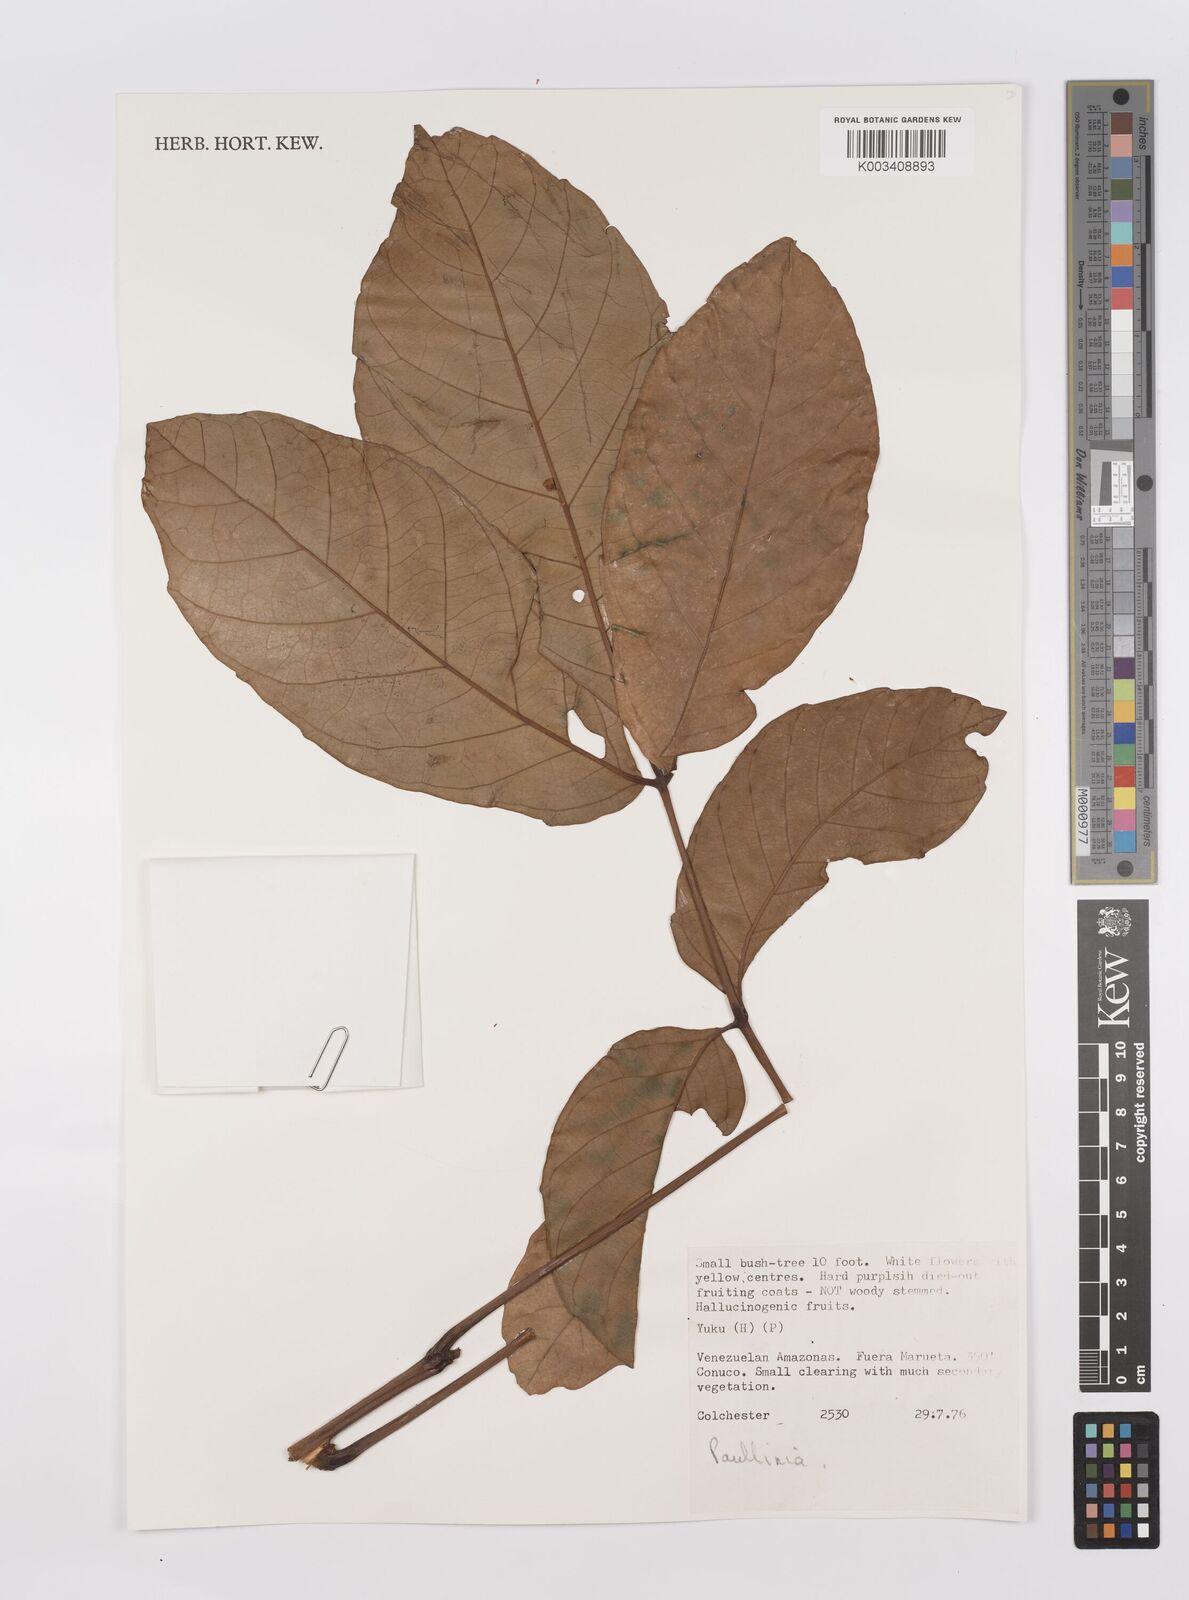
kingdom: Plantae
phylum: Tracheophyta
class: Magnoliopsida
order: Sapindales
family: Sapindaceae
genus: Paullinia
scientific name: Paullinia
